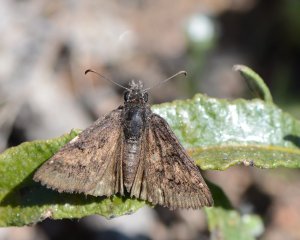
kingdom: Animalia
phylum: Arthropoda
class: Insecta
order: Lepidoptera
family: Hesperiidae
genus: Erynnis
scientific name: Erynnis brizo
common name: Sleepy Duskywing
